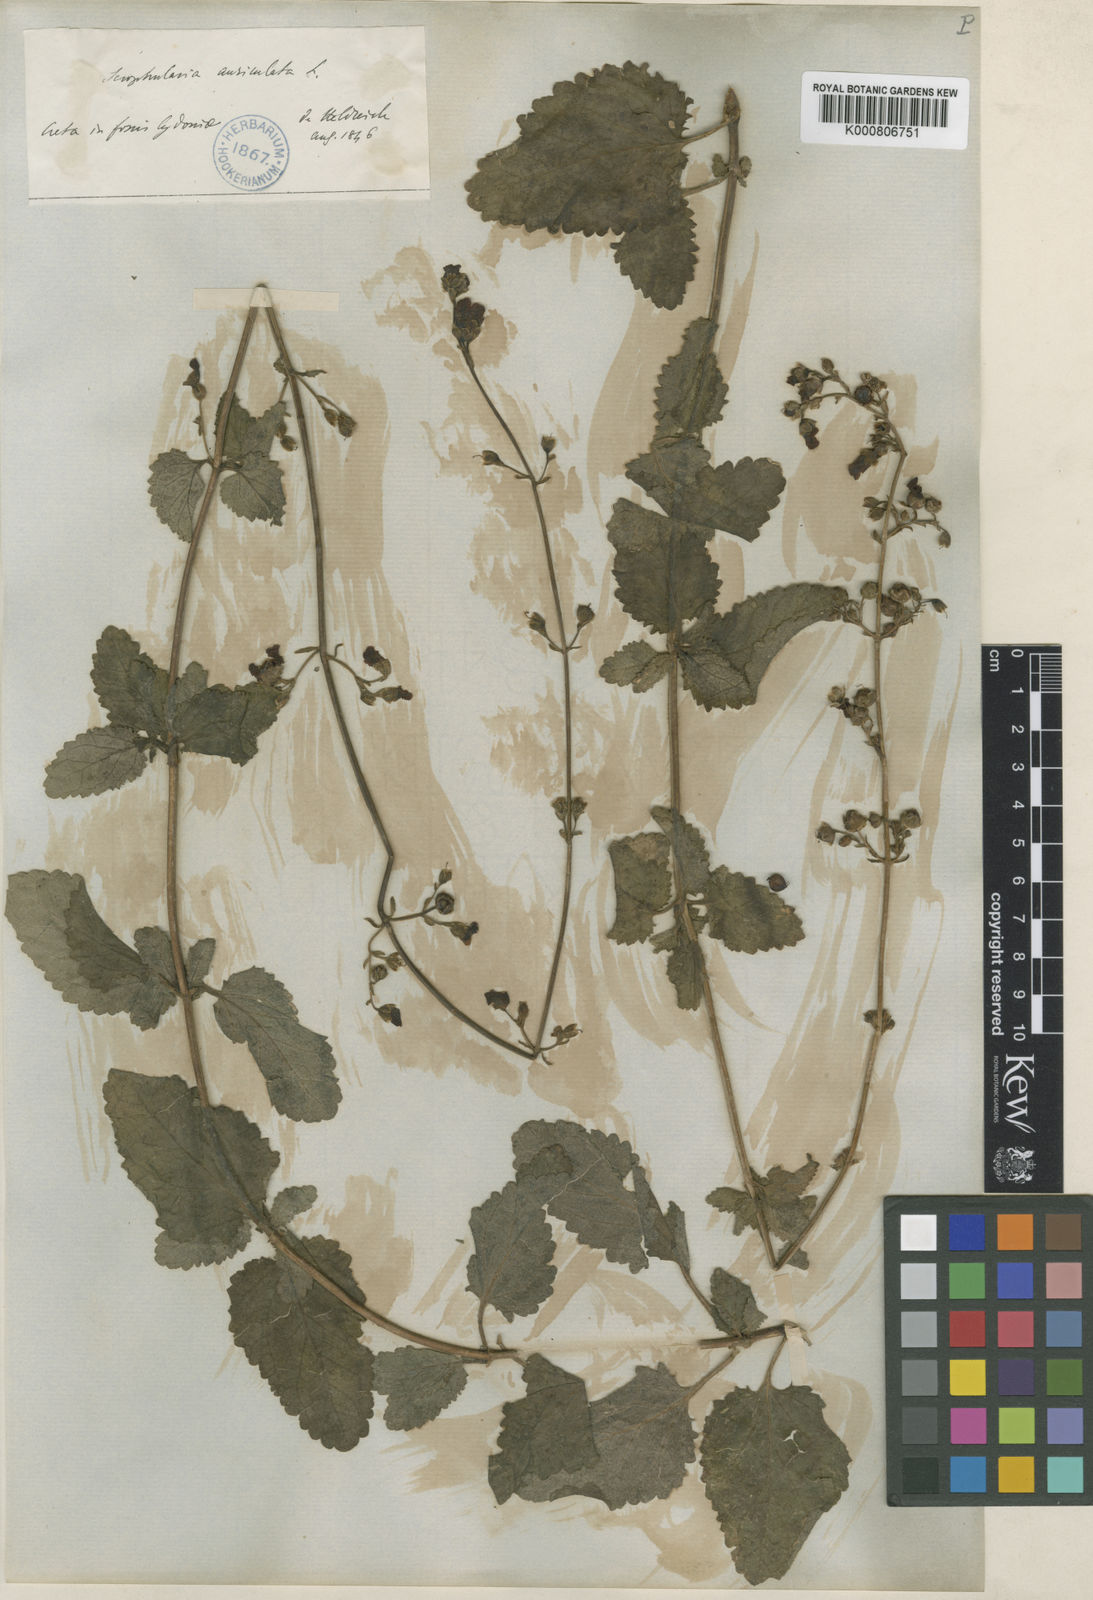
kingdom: Plantae
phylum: Tracheophyta
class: Magnoliopsida
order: Lamiales
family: Scrophulariaceae
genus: Scrophularia
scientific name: Scrophularia auriculata
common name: Water betony
